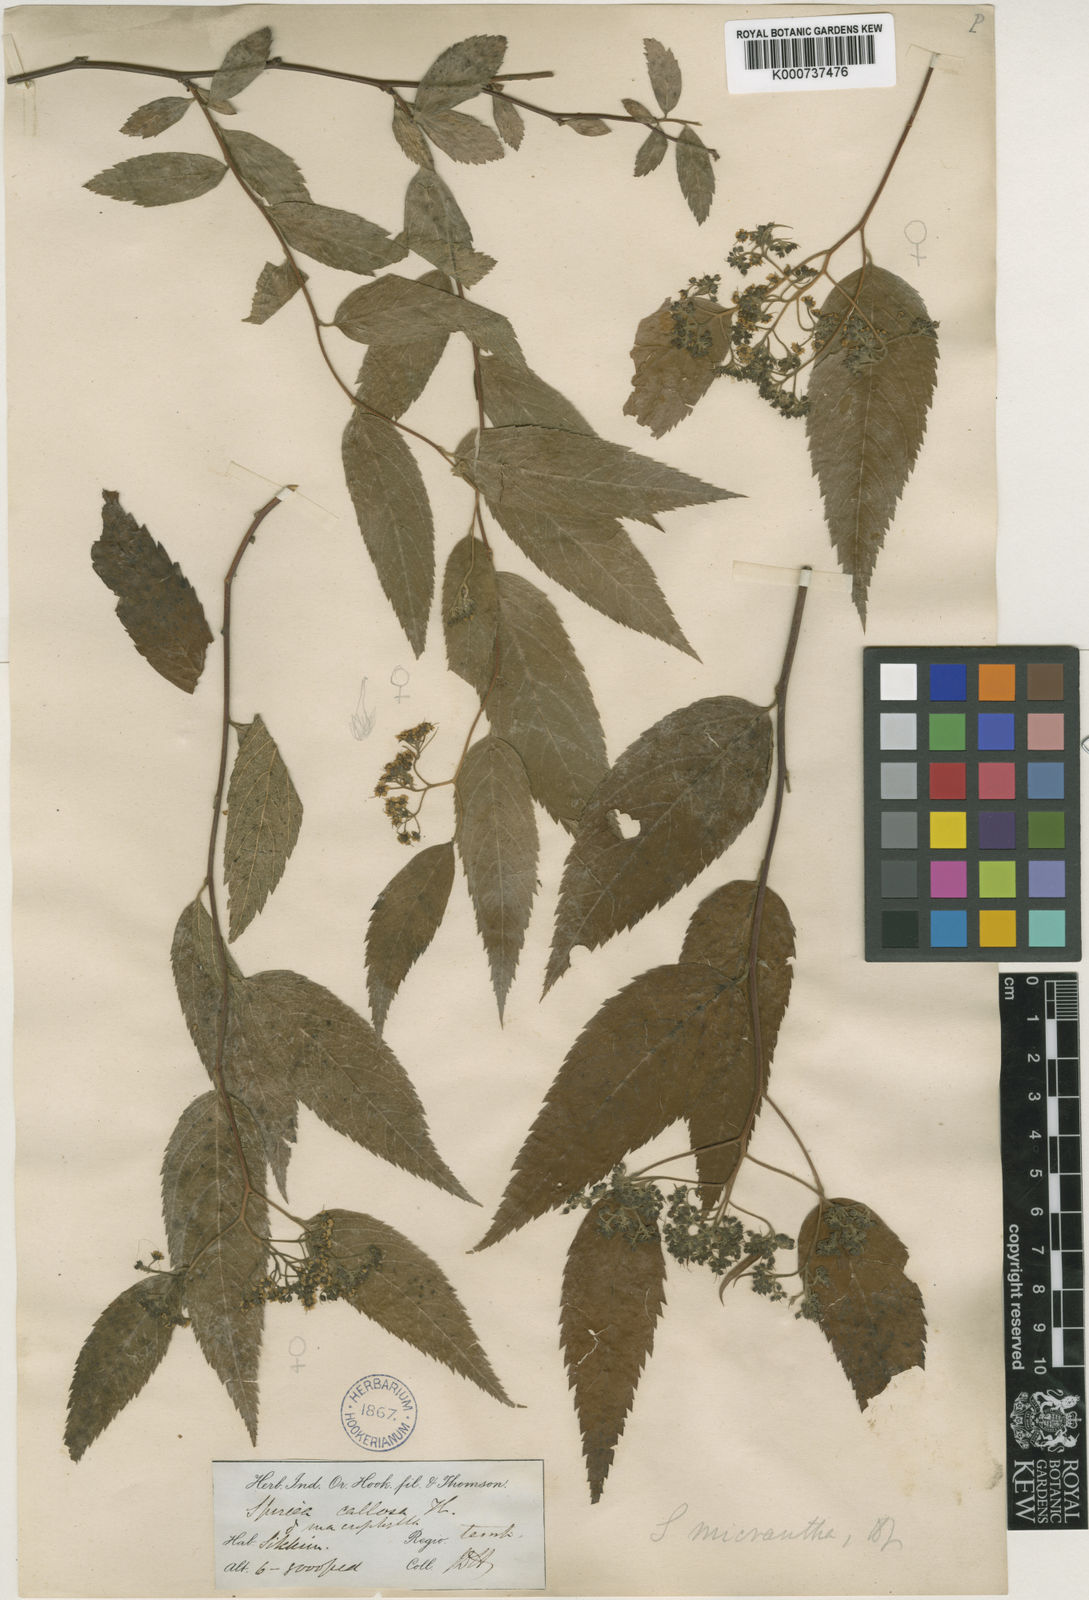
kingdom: Plantae
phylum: Tracheophyta
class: Magnoliopsida
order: Rosales
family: Rosaceae
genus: Spiraea
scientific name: Spiraea japonica
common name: Japanese spiraea
